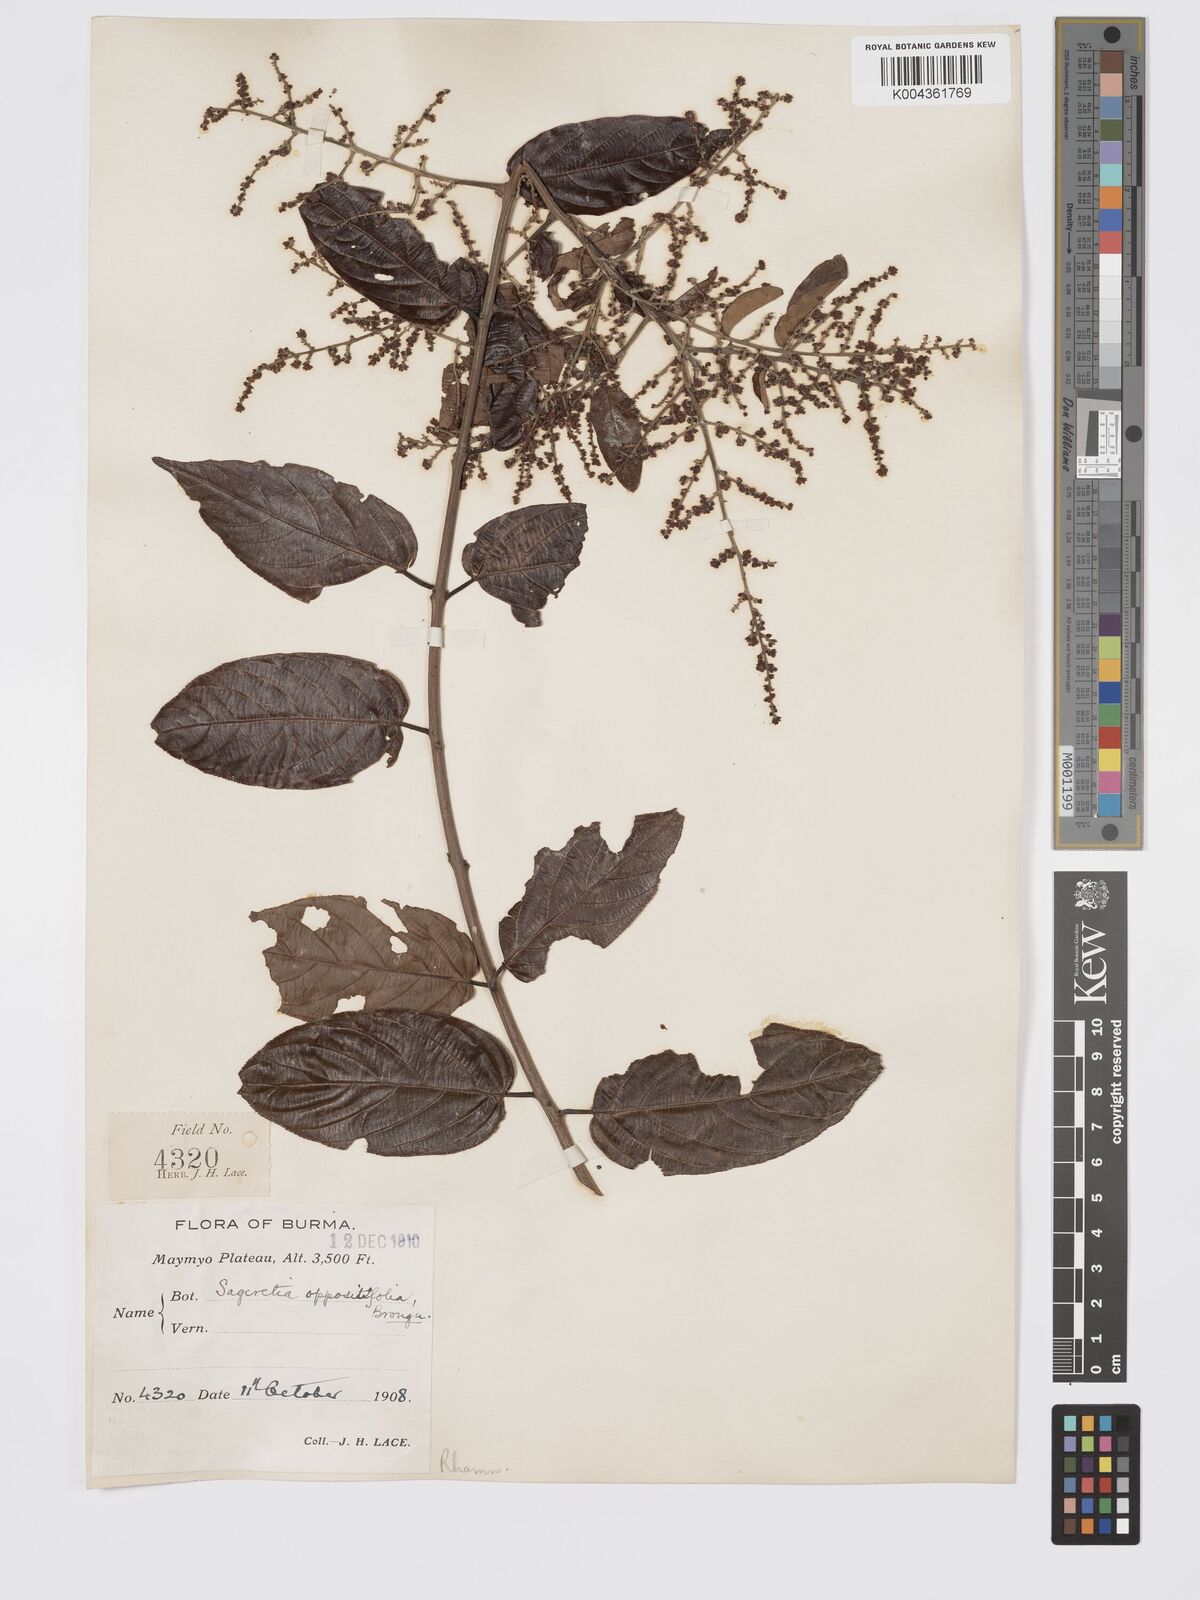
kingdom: Plantae
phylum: Tracheophyta
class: Magnoliopsida
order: Rosales
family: Rhamnaceae
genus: Sageretia
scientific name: Sageretia filiformis
